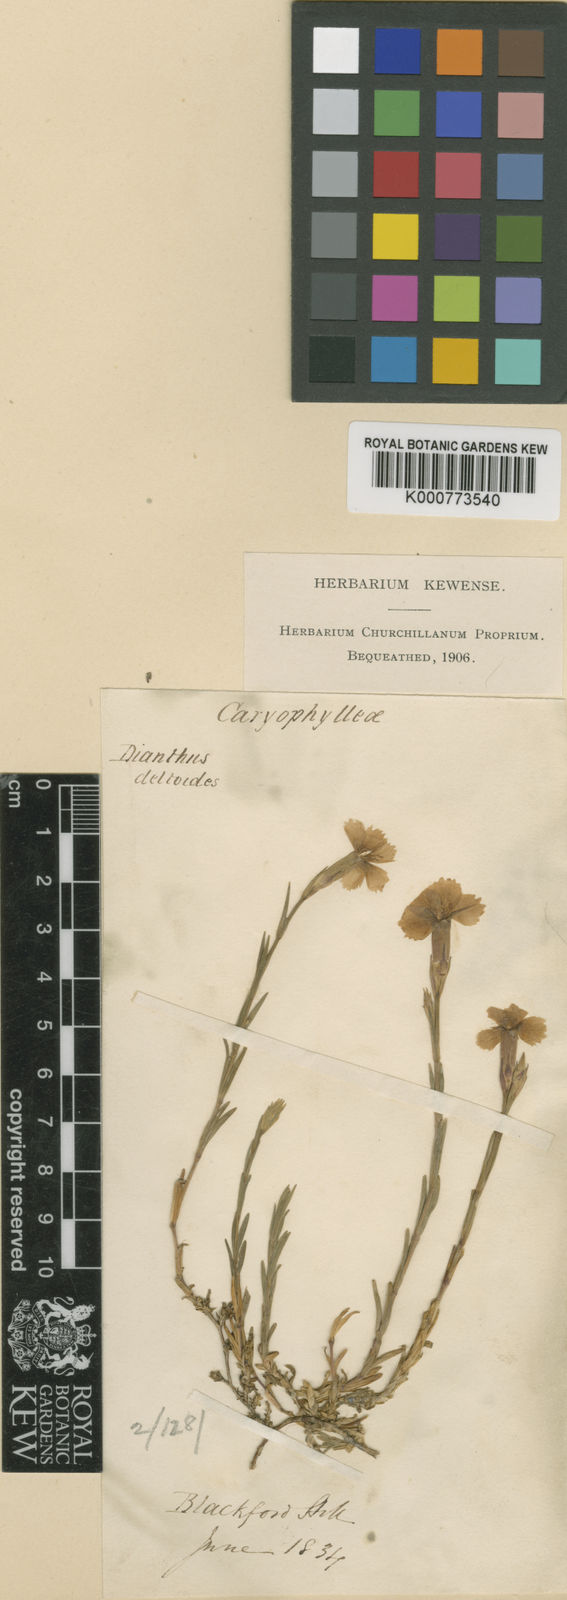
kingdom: Plantae
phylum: Tracheophyta
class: Magnoliopsida
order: Caryophyllales
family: Caryophyllaceae
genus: Dianthus
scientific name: Dianthus deltoides
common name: Maiden pink
